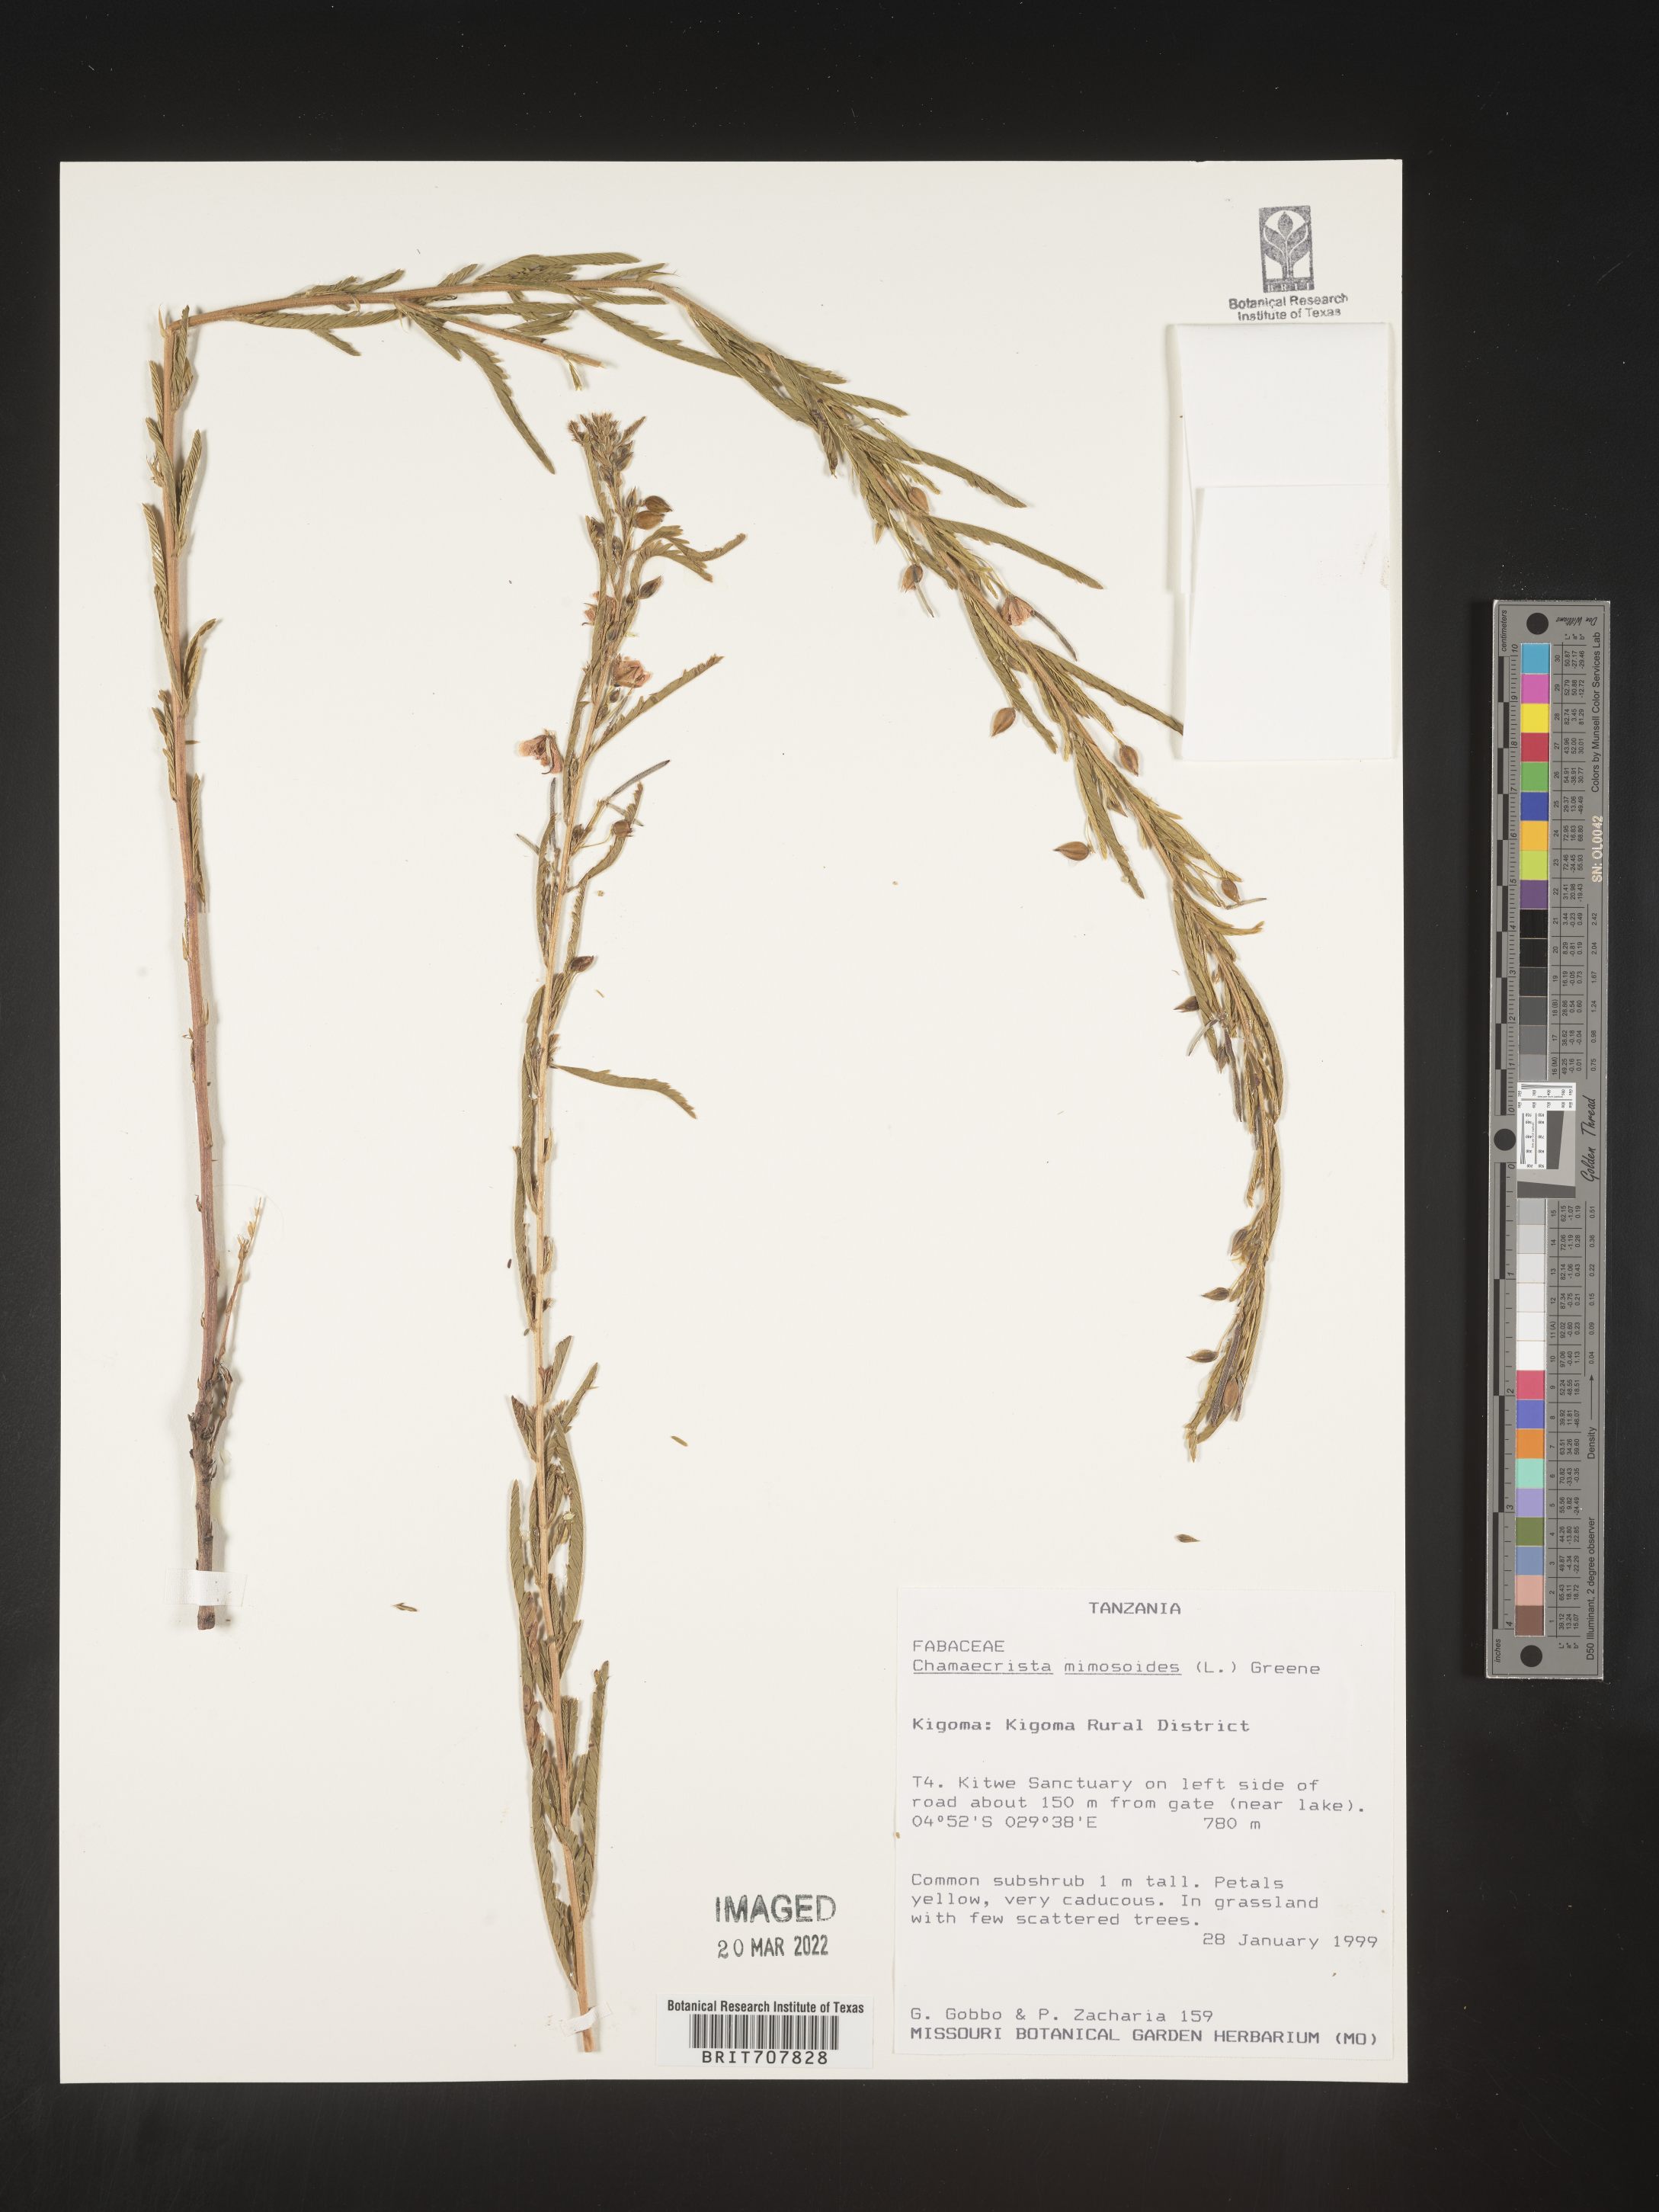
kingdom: Plantae
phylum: Tracheophyta
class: Magnoliopsida
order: Fabales
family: Fabaceae
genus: Chamaecrista
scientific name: Chamaecrista
